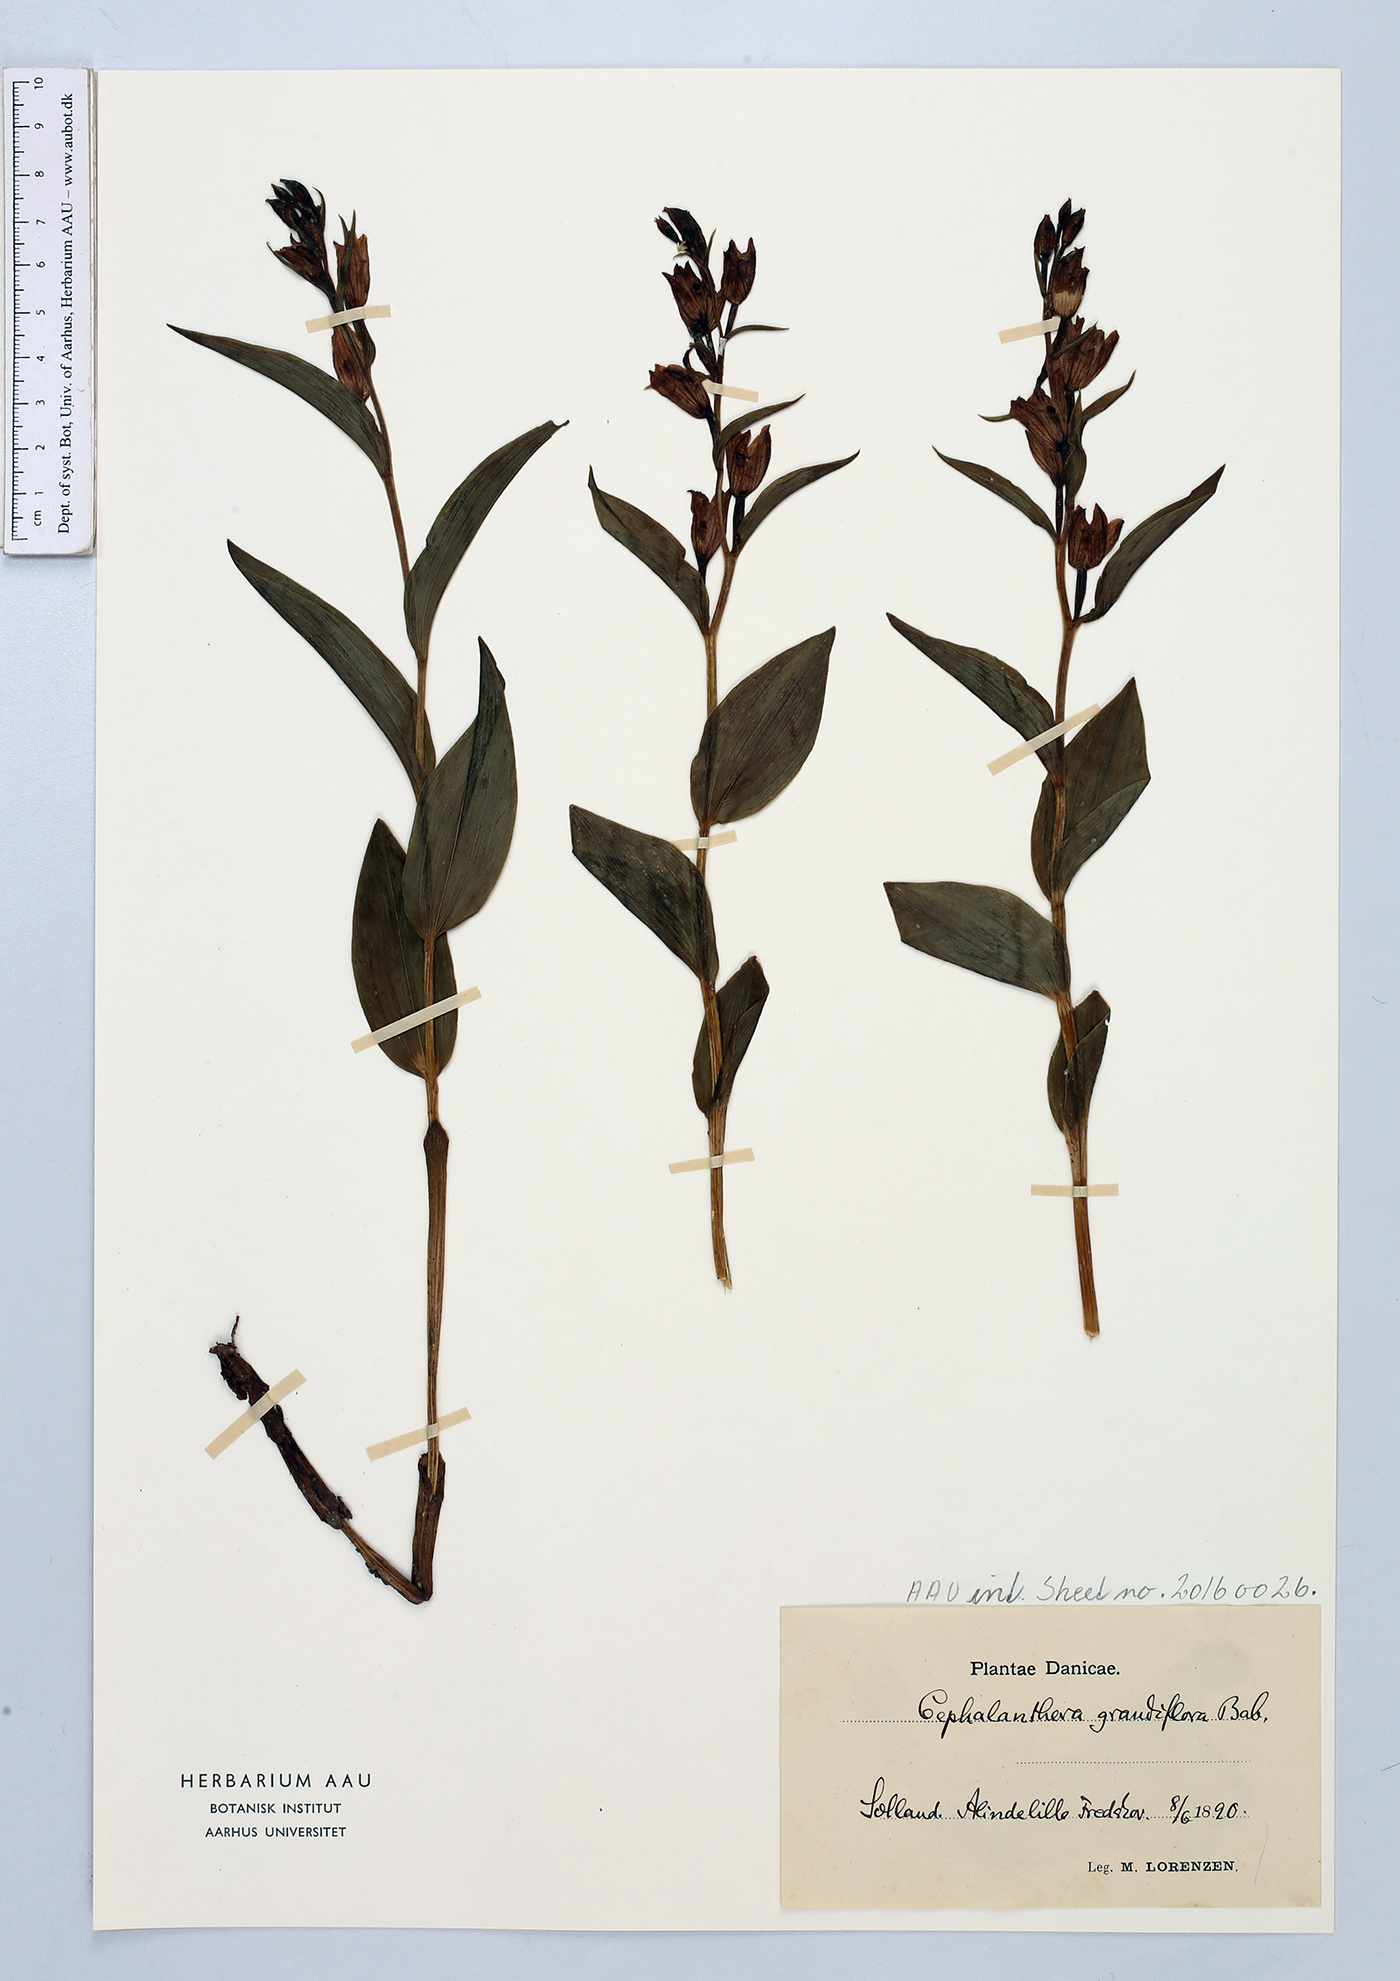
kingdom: Plantae
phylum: Tracheophyta
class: Liliopsida
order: Asparagales
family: Orchidaceae
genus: Cephalanthera
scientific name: Cephalanthera damasonium
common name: White helleborine
